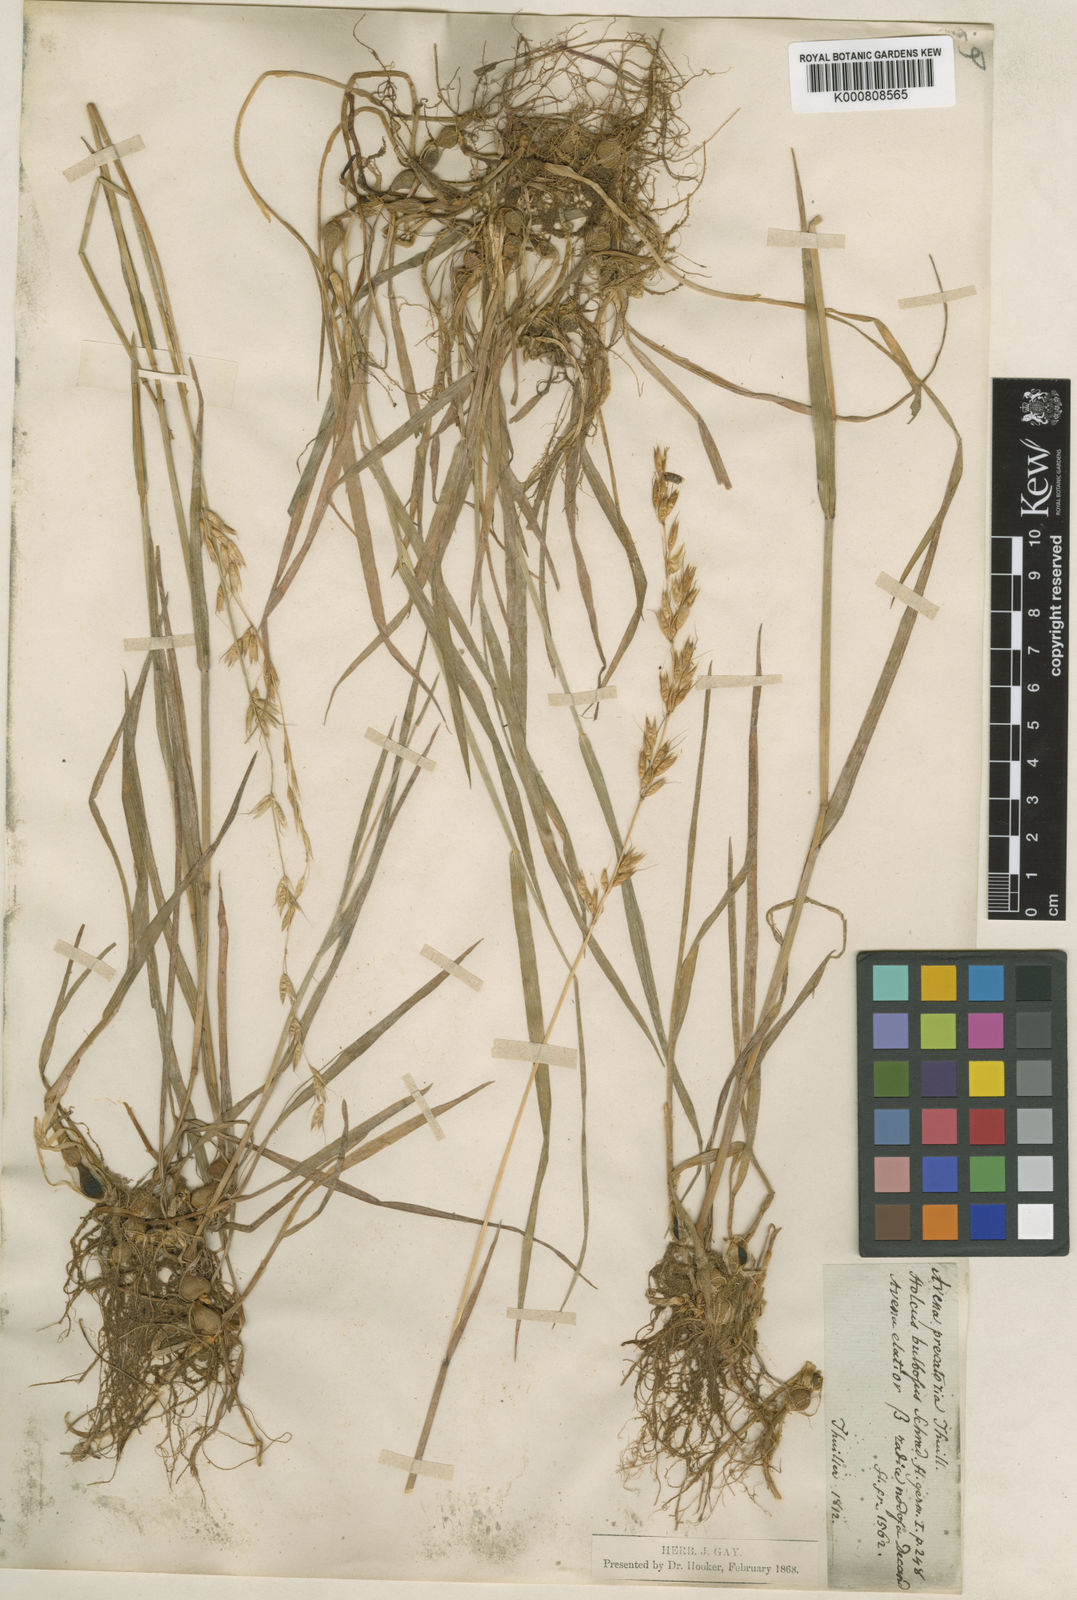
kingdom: Plantae
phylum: Tracheophyta
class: Liliopsida
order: Poales
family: Poaceae
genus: Arrhenatherum
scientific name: Arrhenatherum elatius
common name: Tall oatgrass
